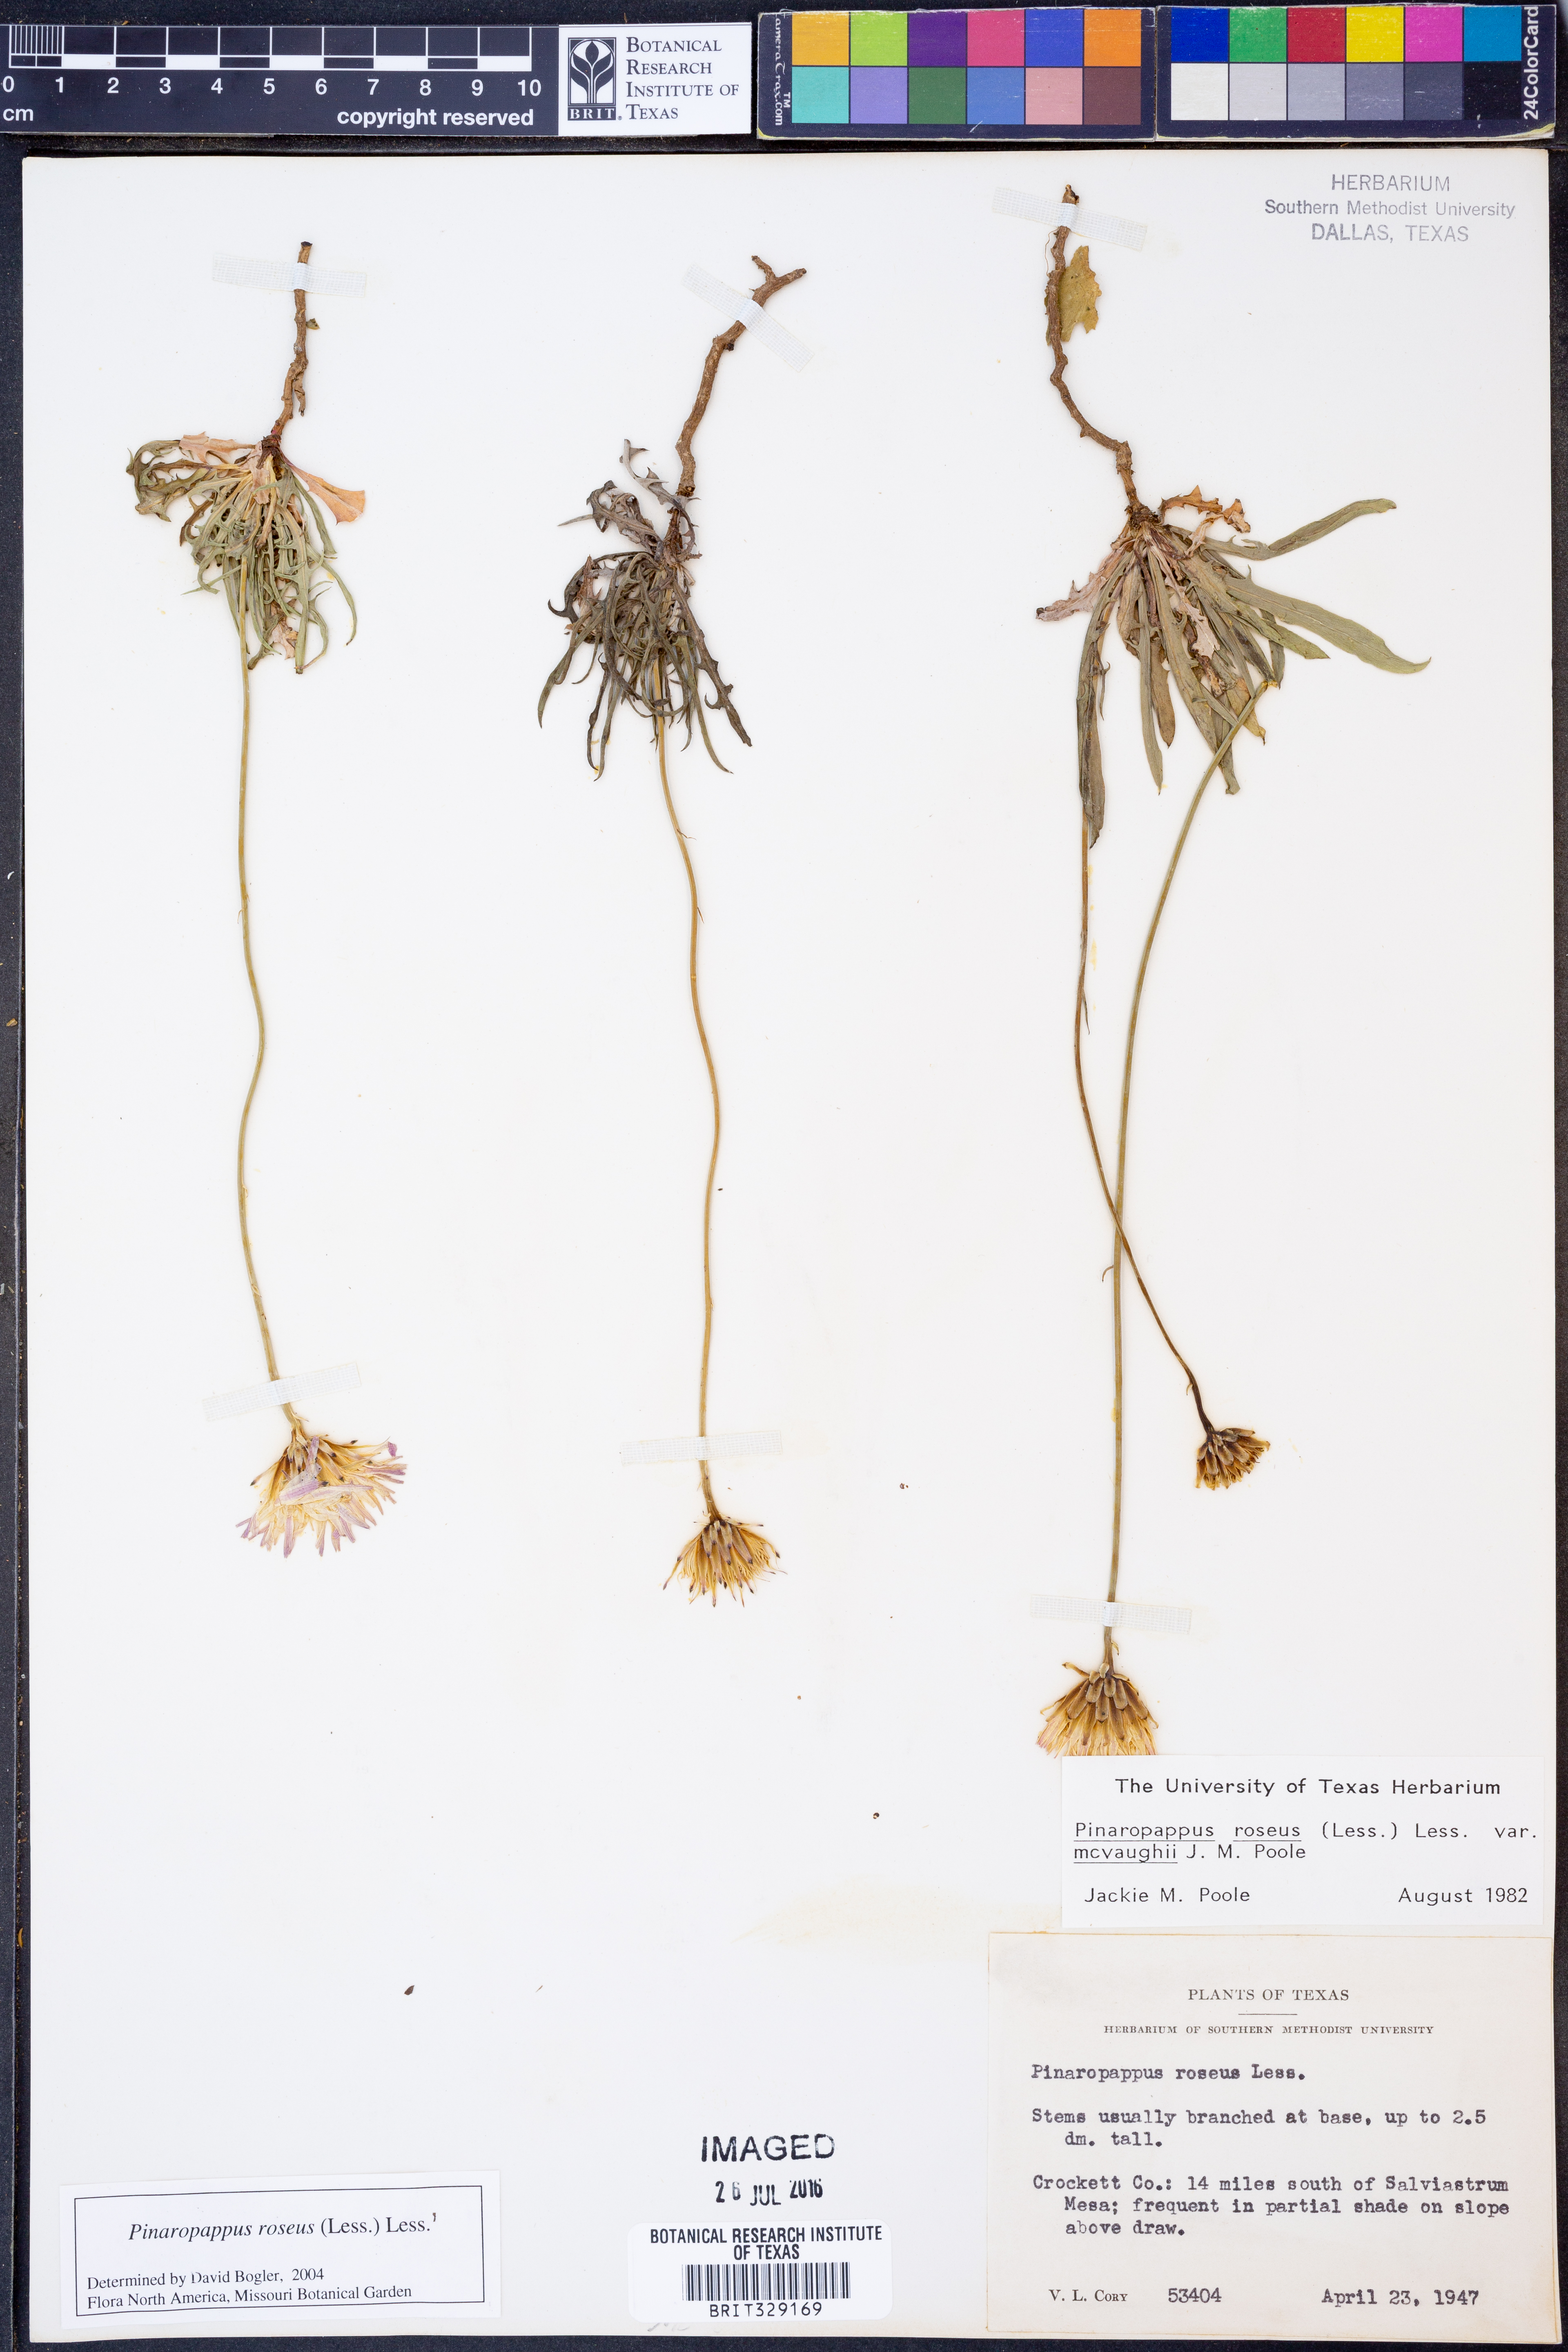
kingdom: Plantae
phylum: Tracheophyta
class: Magnoliopsida
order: Asterales
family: Asteraceae
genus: Pinaropappus
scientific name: Pinaropappus roseus
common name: Rock-lettuce
